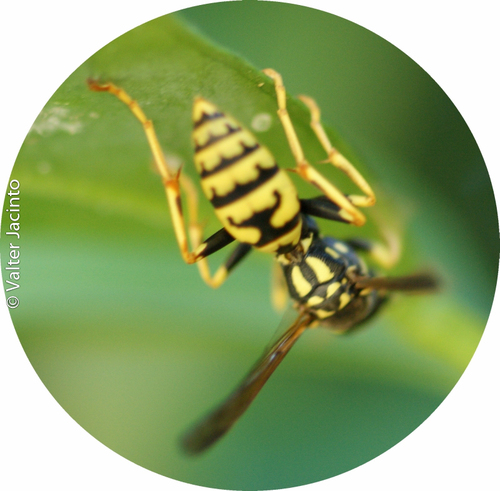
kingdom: Animalia
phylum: Arthropoda
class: Insecta
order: Hymenoptera
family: Eumenidae
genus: Polistes
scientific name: Polistes dominula
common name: Paper wasp
